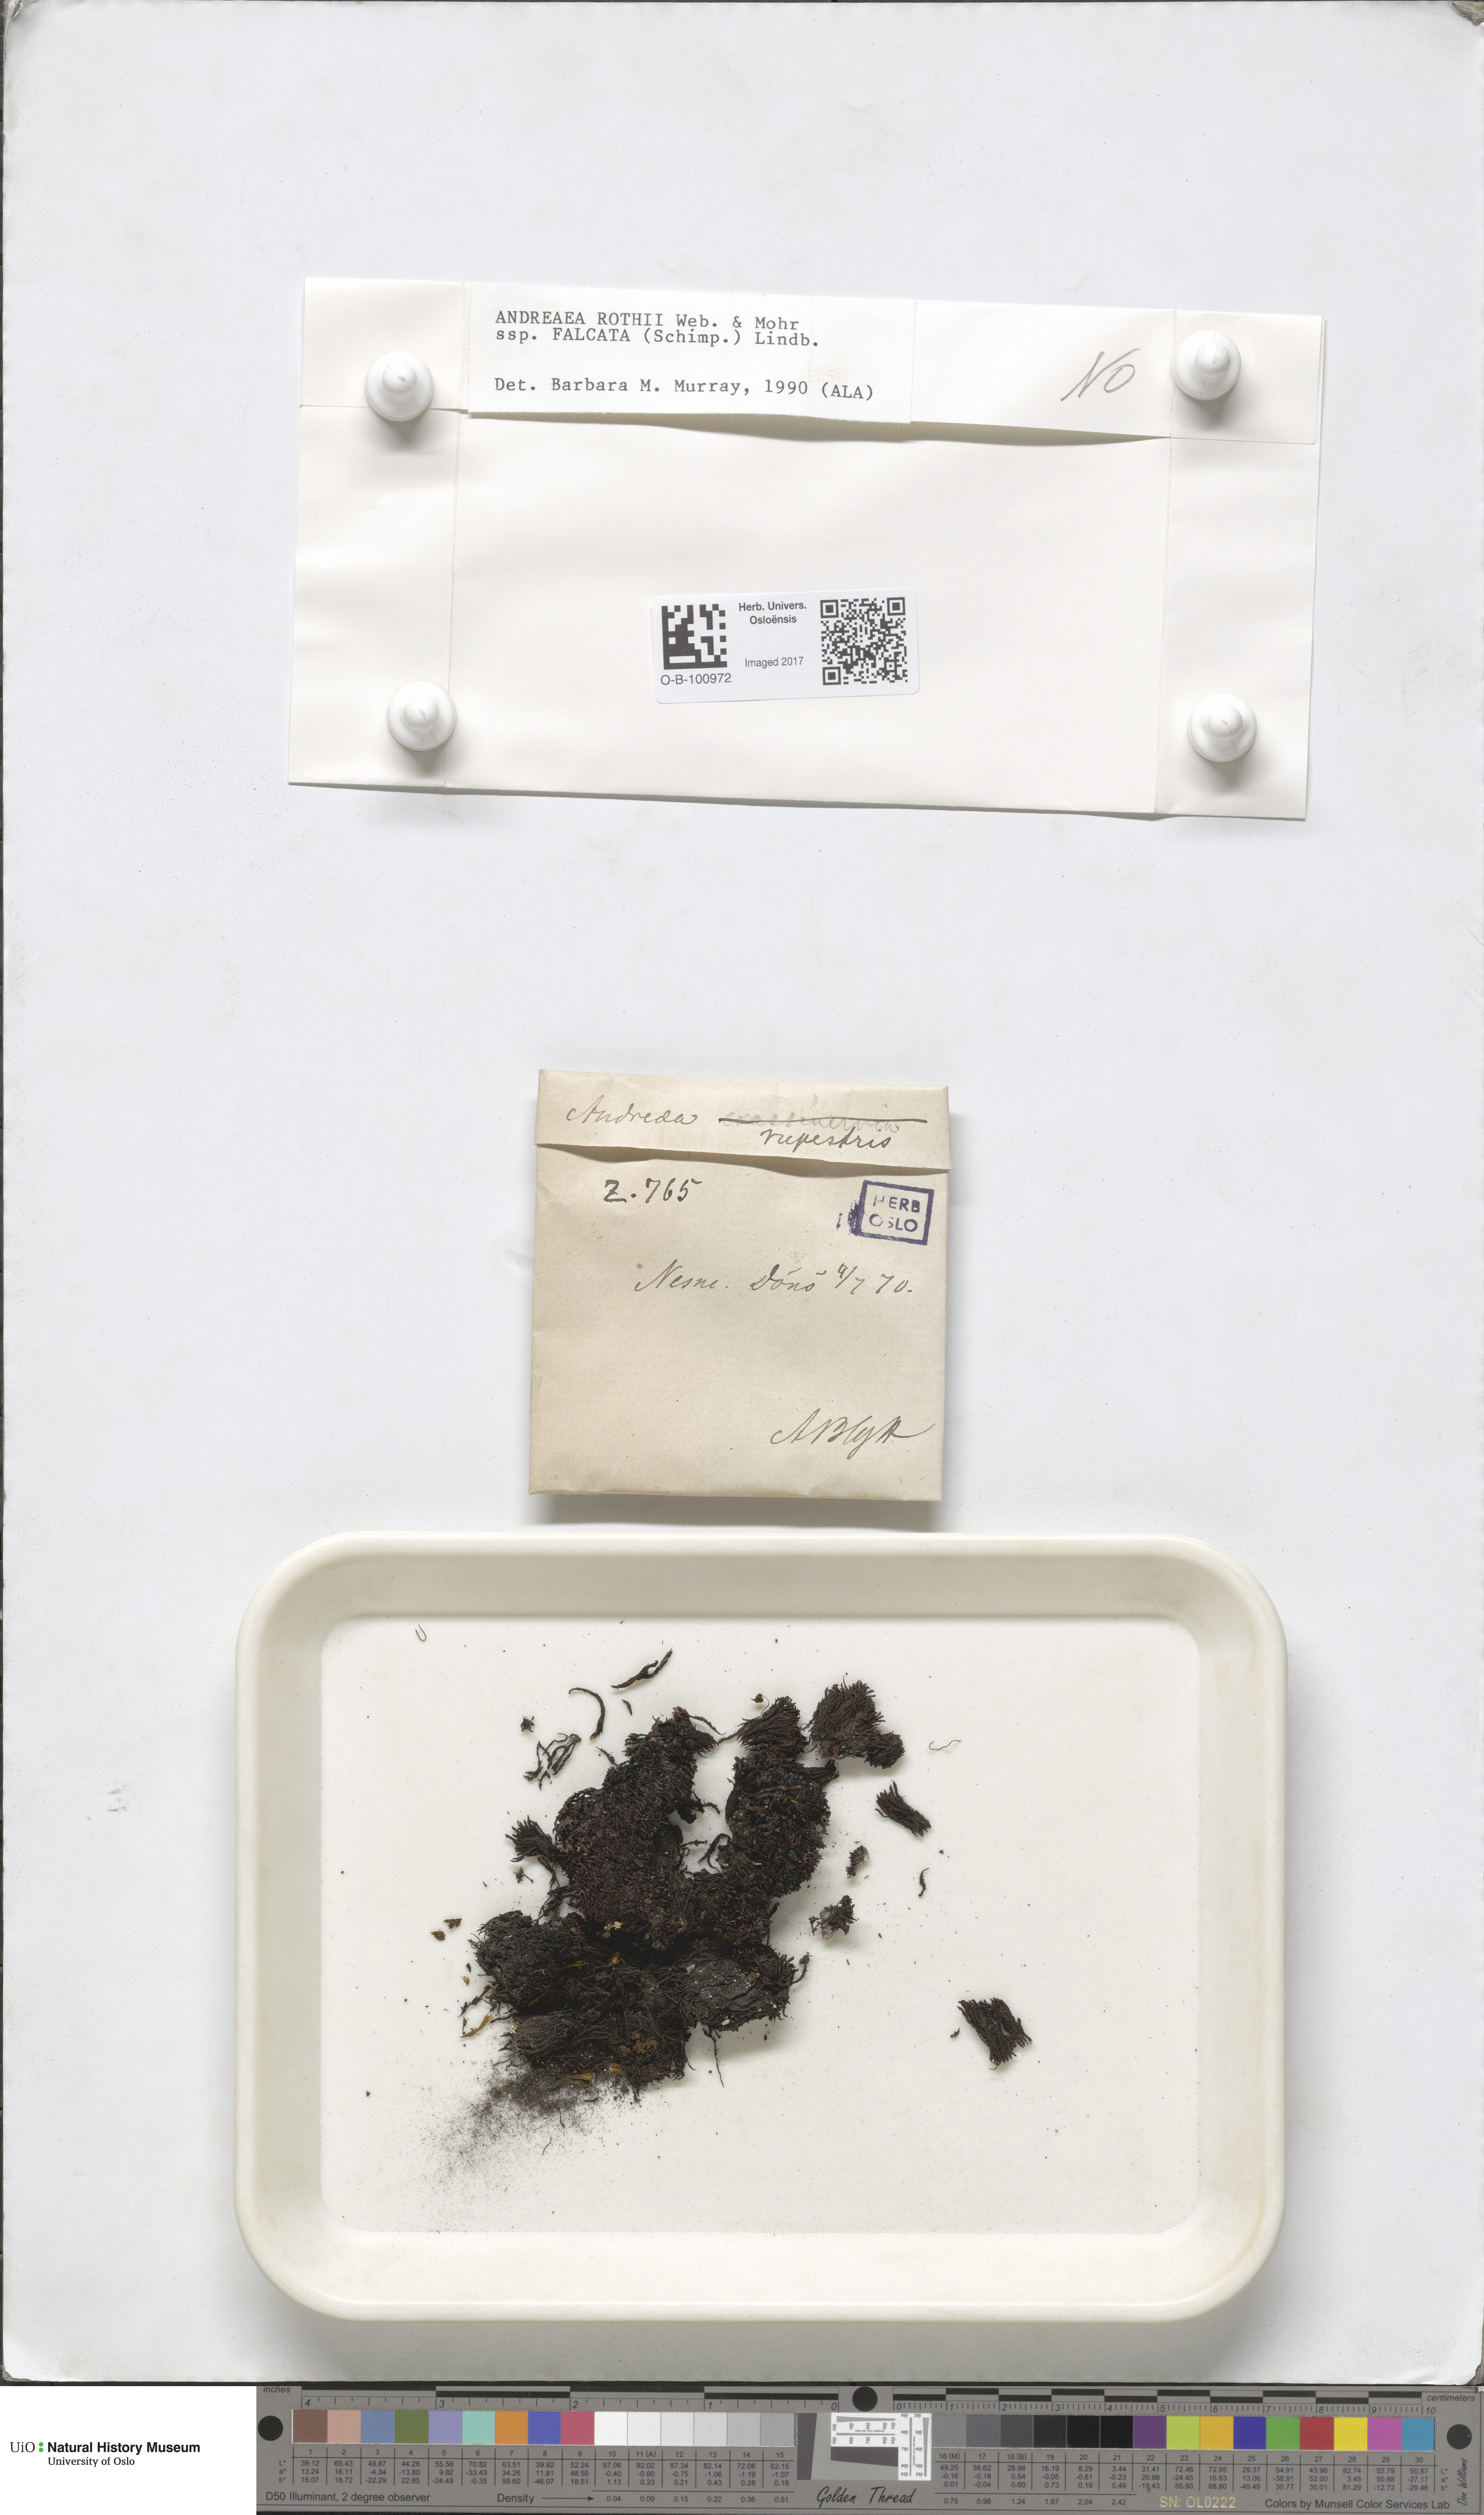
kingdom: Plantae
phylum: Bryophyta
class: Andreaeopsida
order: Andreaeales
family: Andreaeaceae
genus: Andreaea
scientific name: Andreaea rothii
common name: Dusky rock moss
